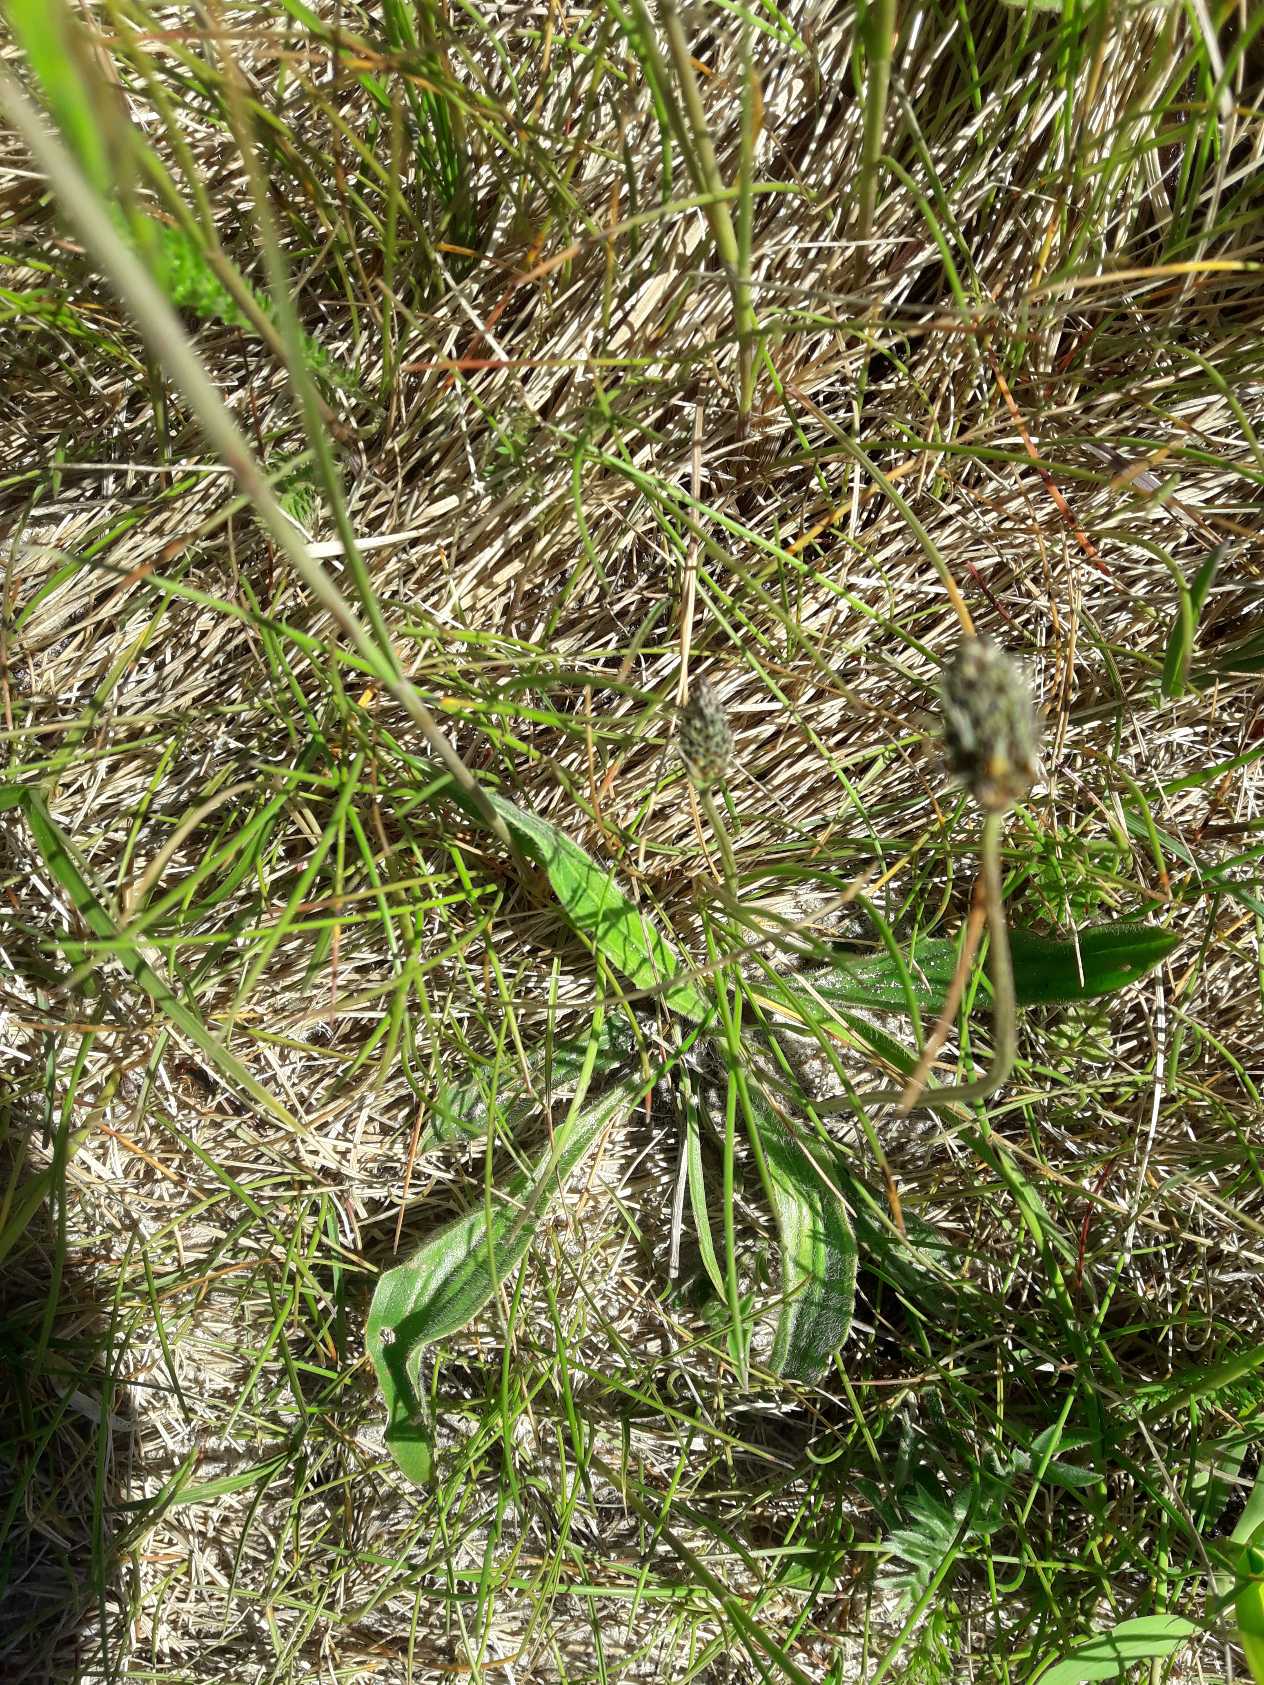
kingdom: Plantae
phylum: Tracheophyta
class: Magnoliopsida
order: Lamiales
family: Plantaginaceae
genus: Plantago
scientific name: Plantago lanceolata
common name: Lancet-vejbred
